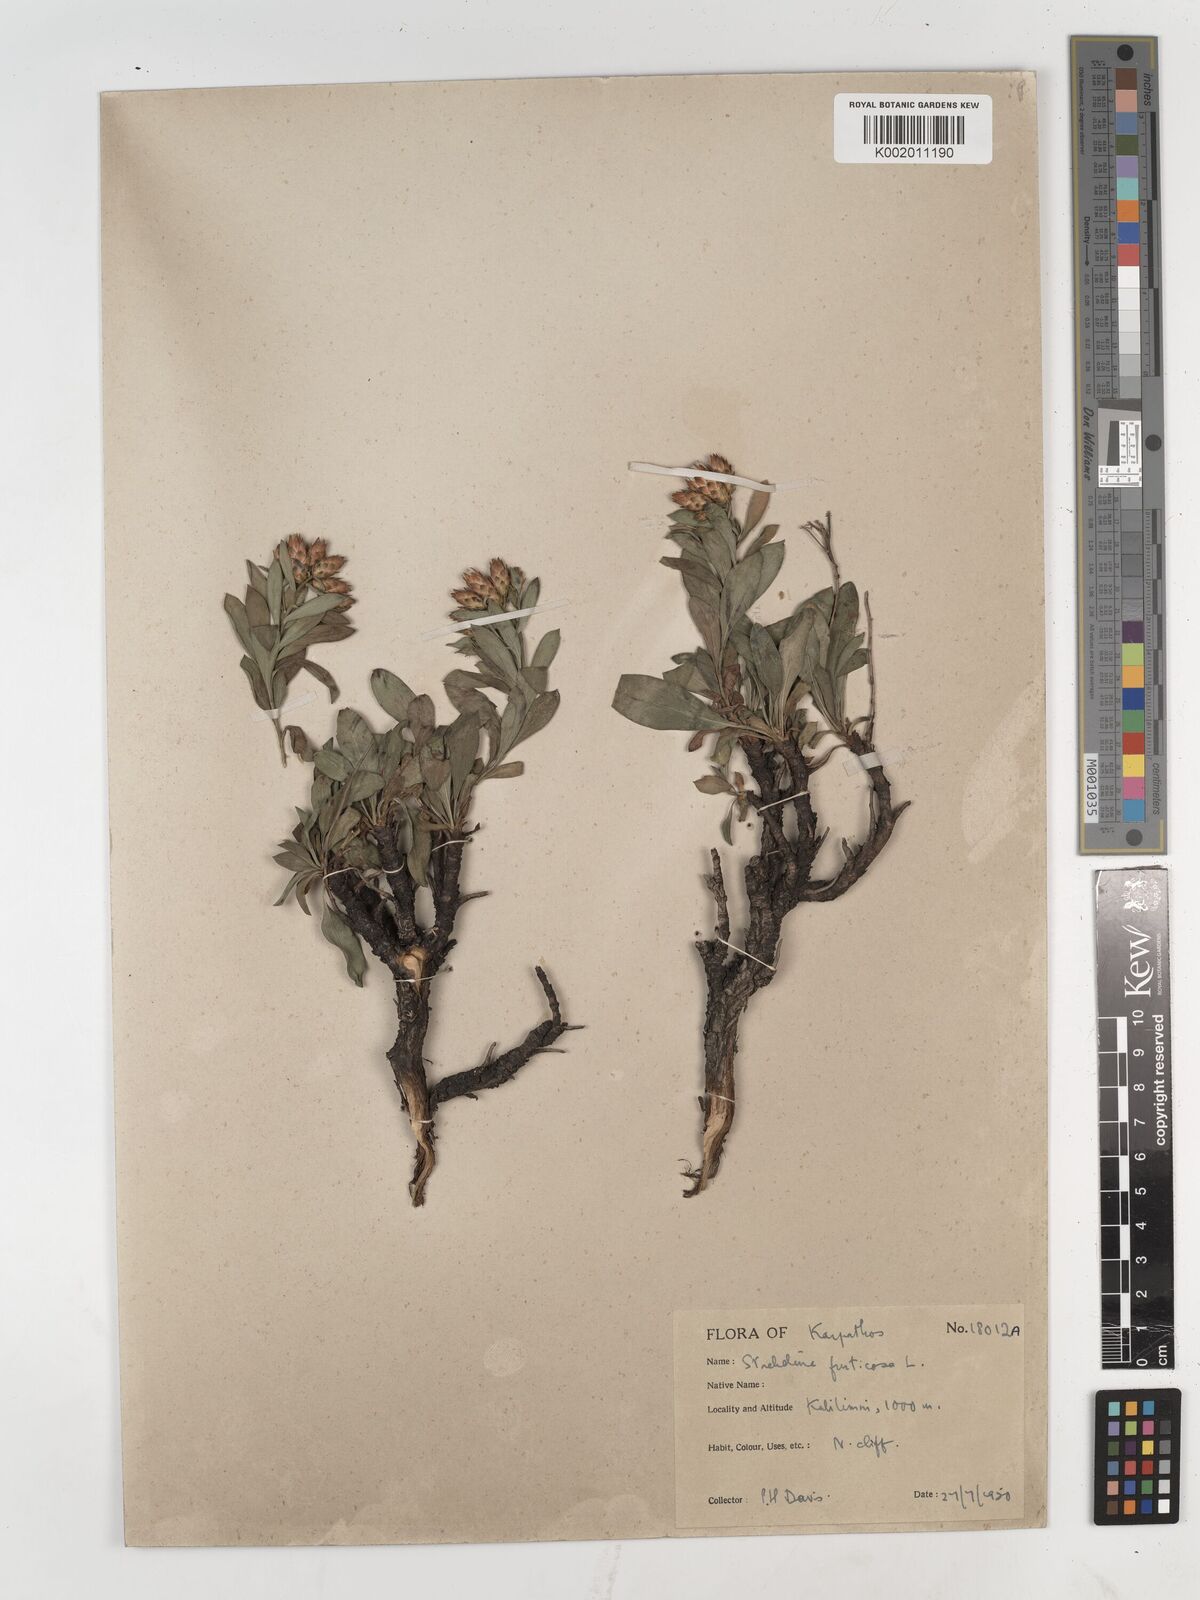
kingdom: Plantae
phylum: Tracheophyta
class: Magnoliopsida
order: Asterales
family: Asteraceae
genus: Hirtellina
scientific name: Hirtellina fruticosa
